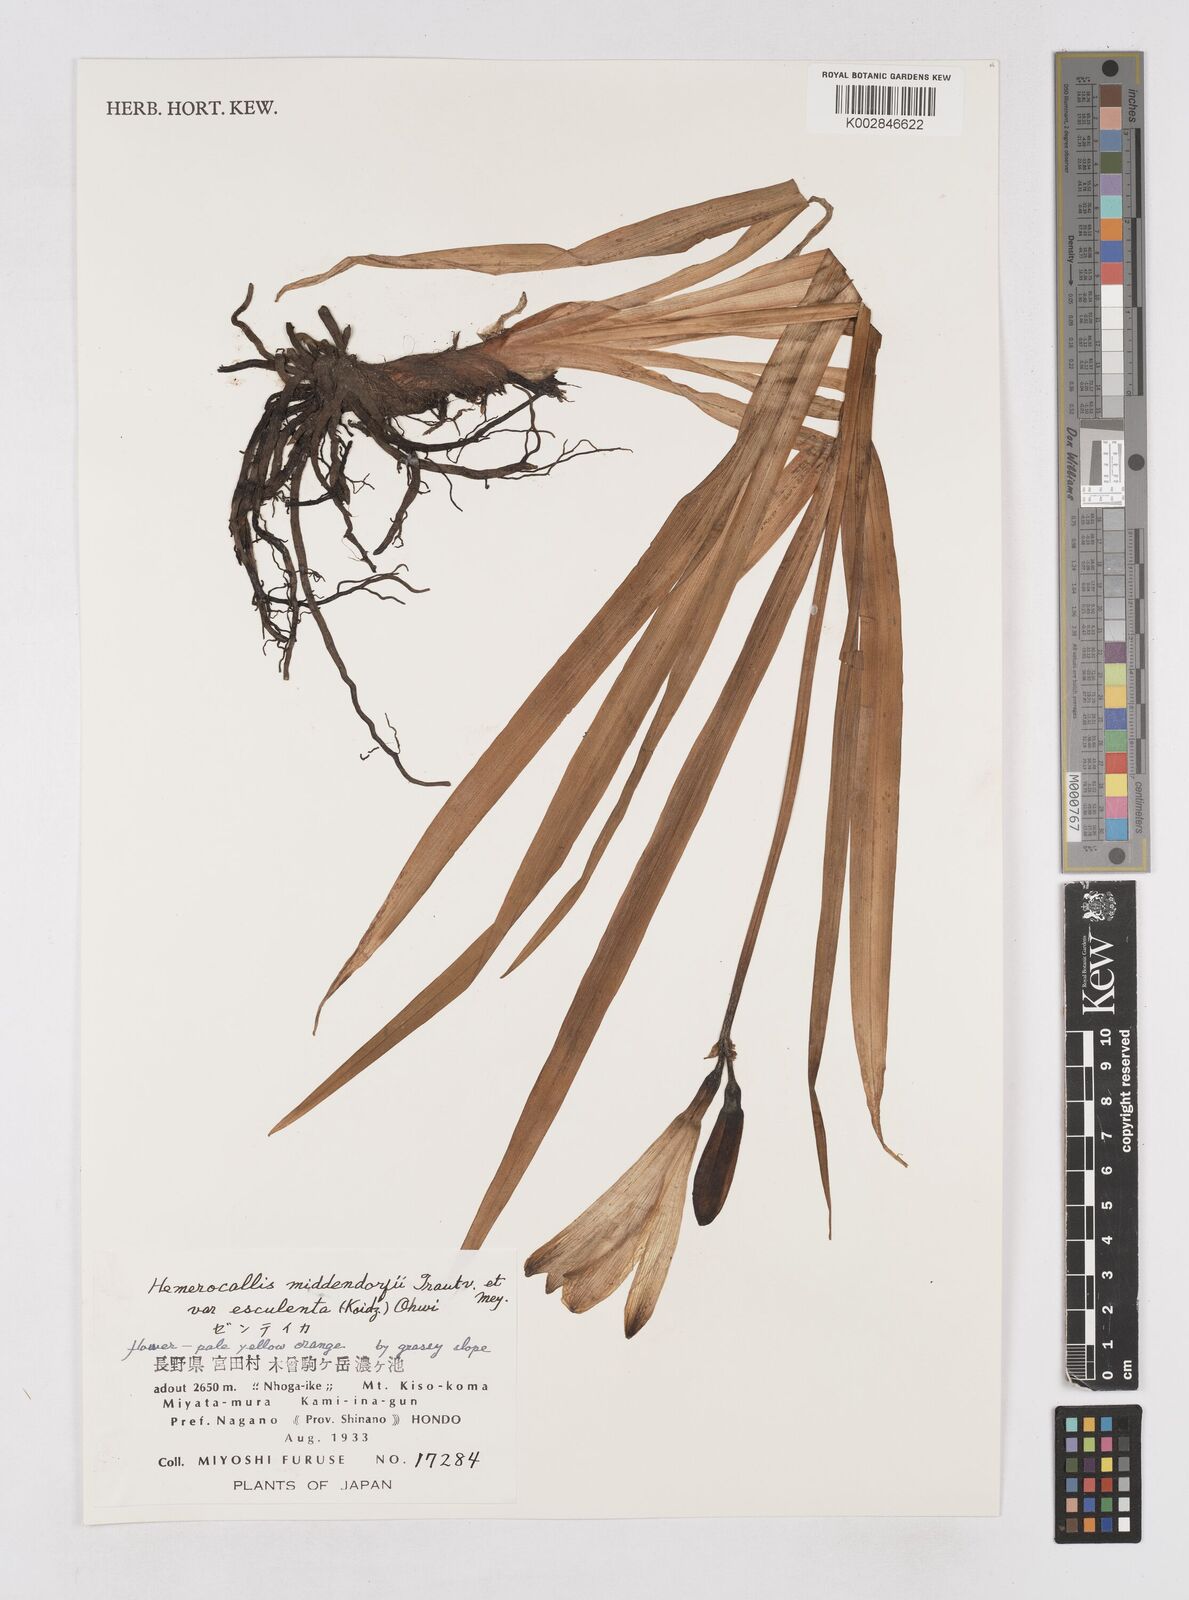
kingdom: Plantae
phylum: Tracheophyta
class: Liliopsida
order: Asparagales
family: Asphodelaceae
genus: Hemerocallis
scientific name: Hemerocallis middendorffii
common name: Amur day-lily
